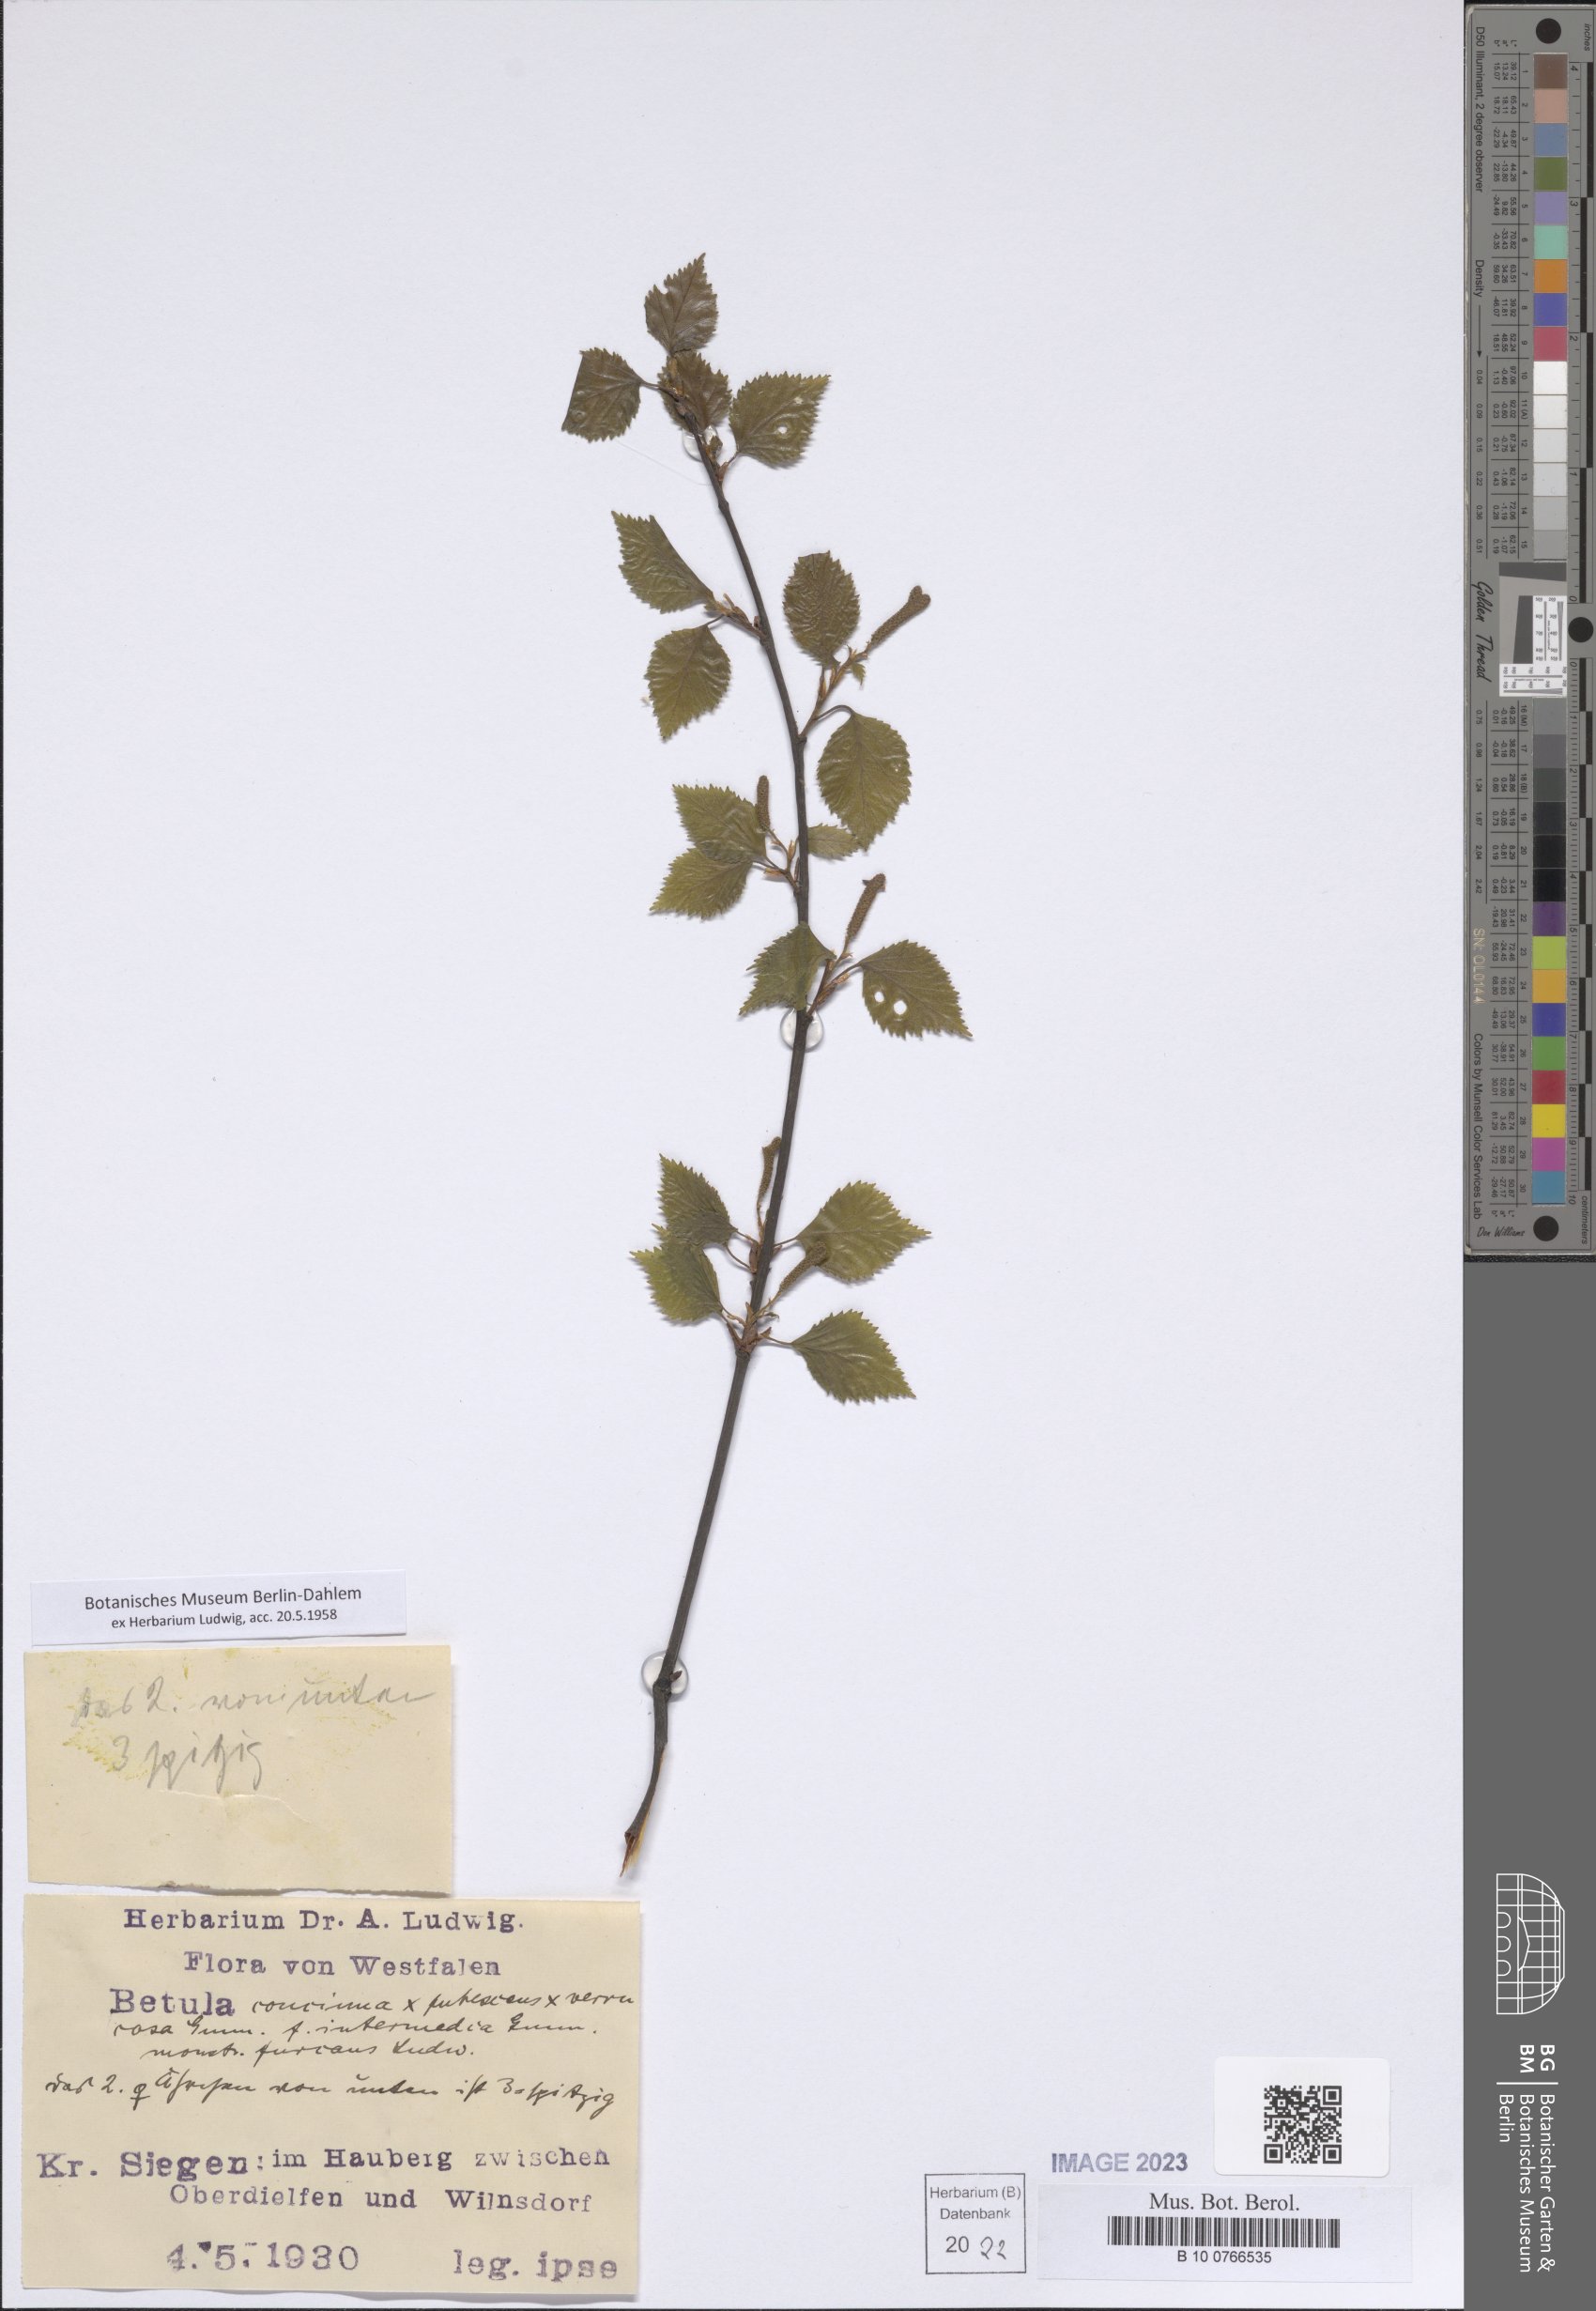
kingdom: Plantae
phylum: Tracheophyta
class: Magnoliopsida
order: Fagales
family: Betulaceae
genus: Betula
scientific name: Betula
